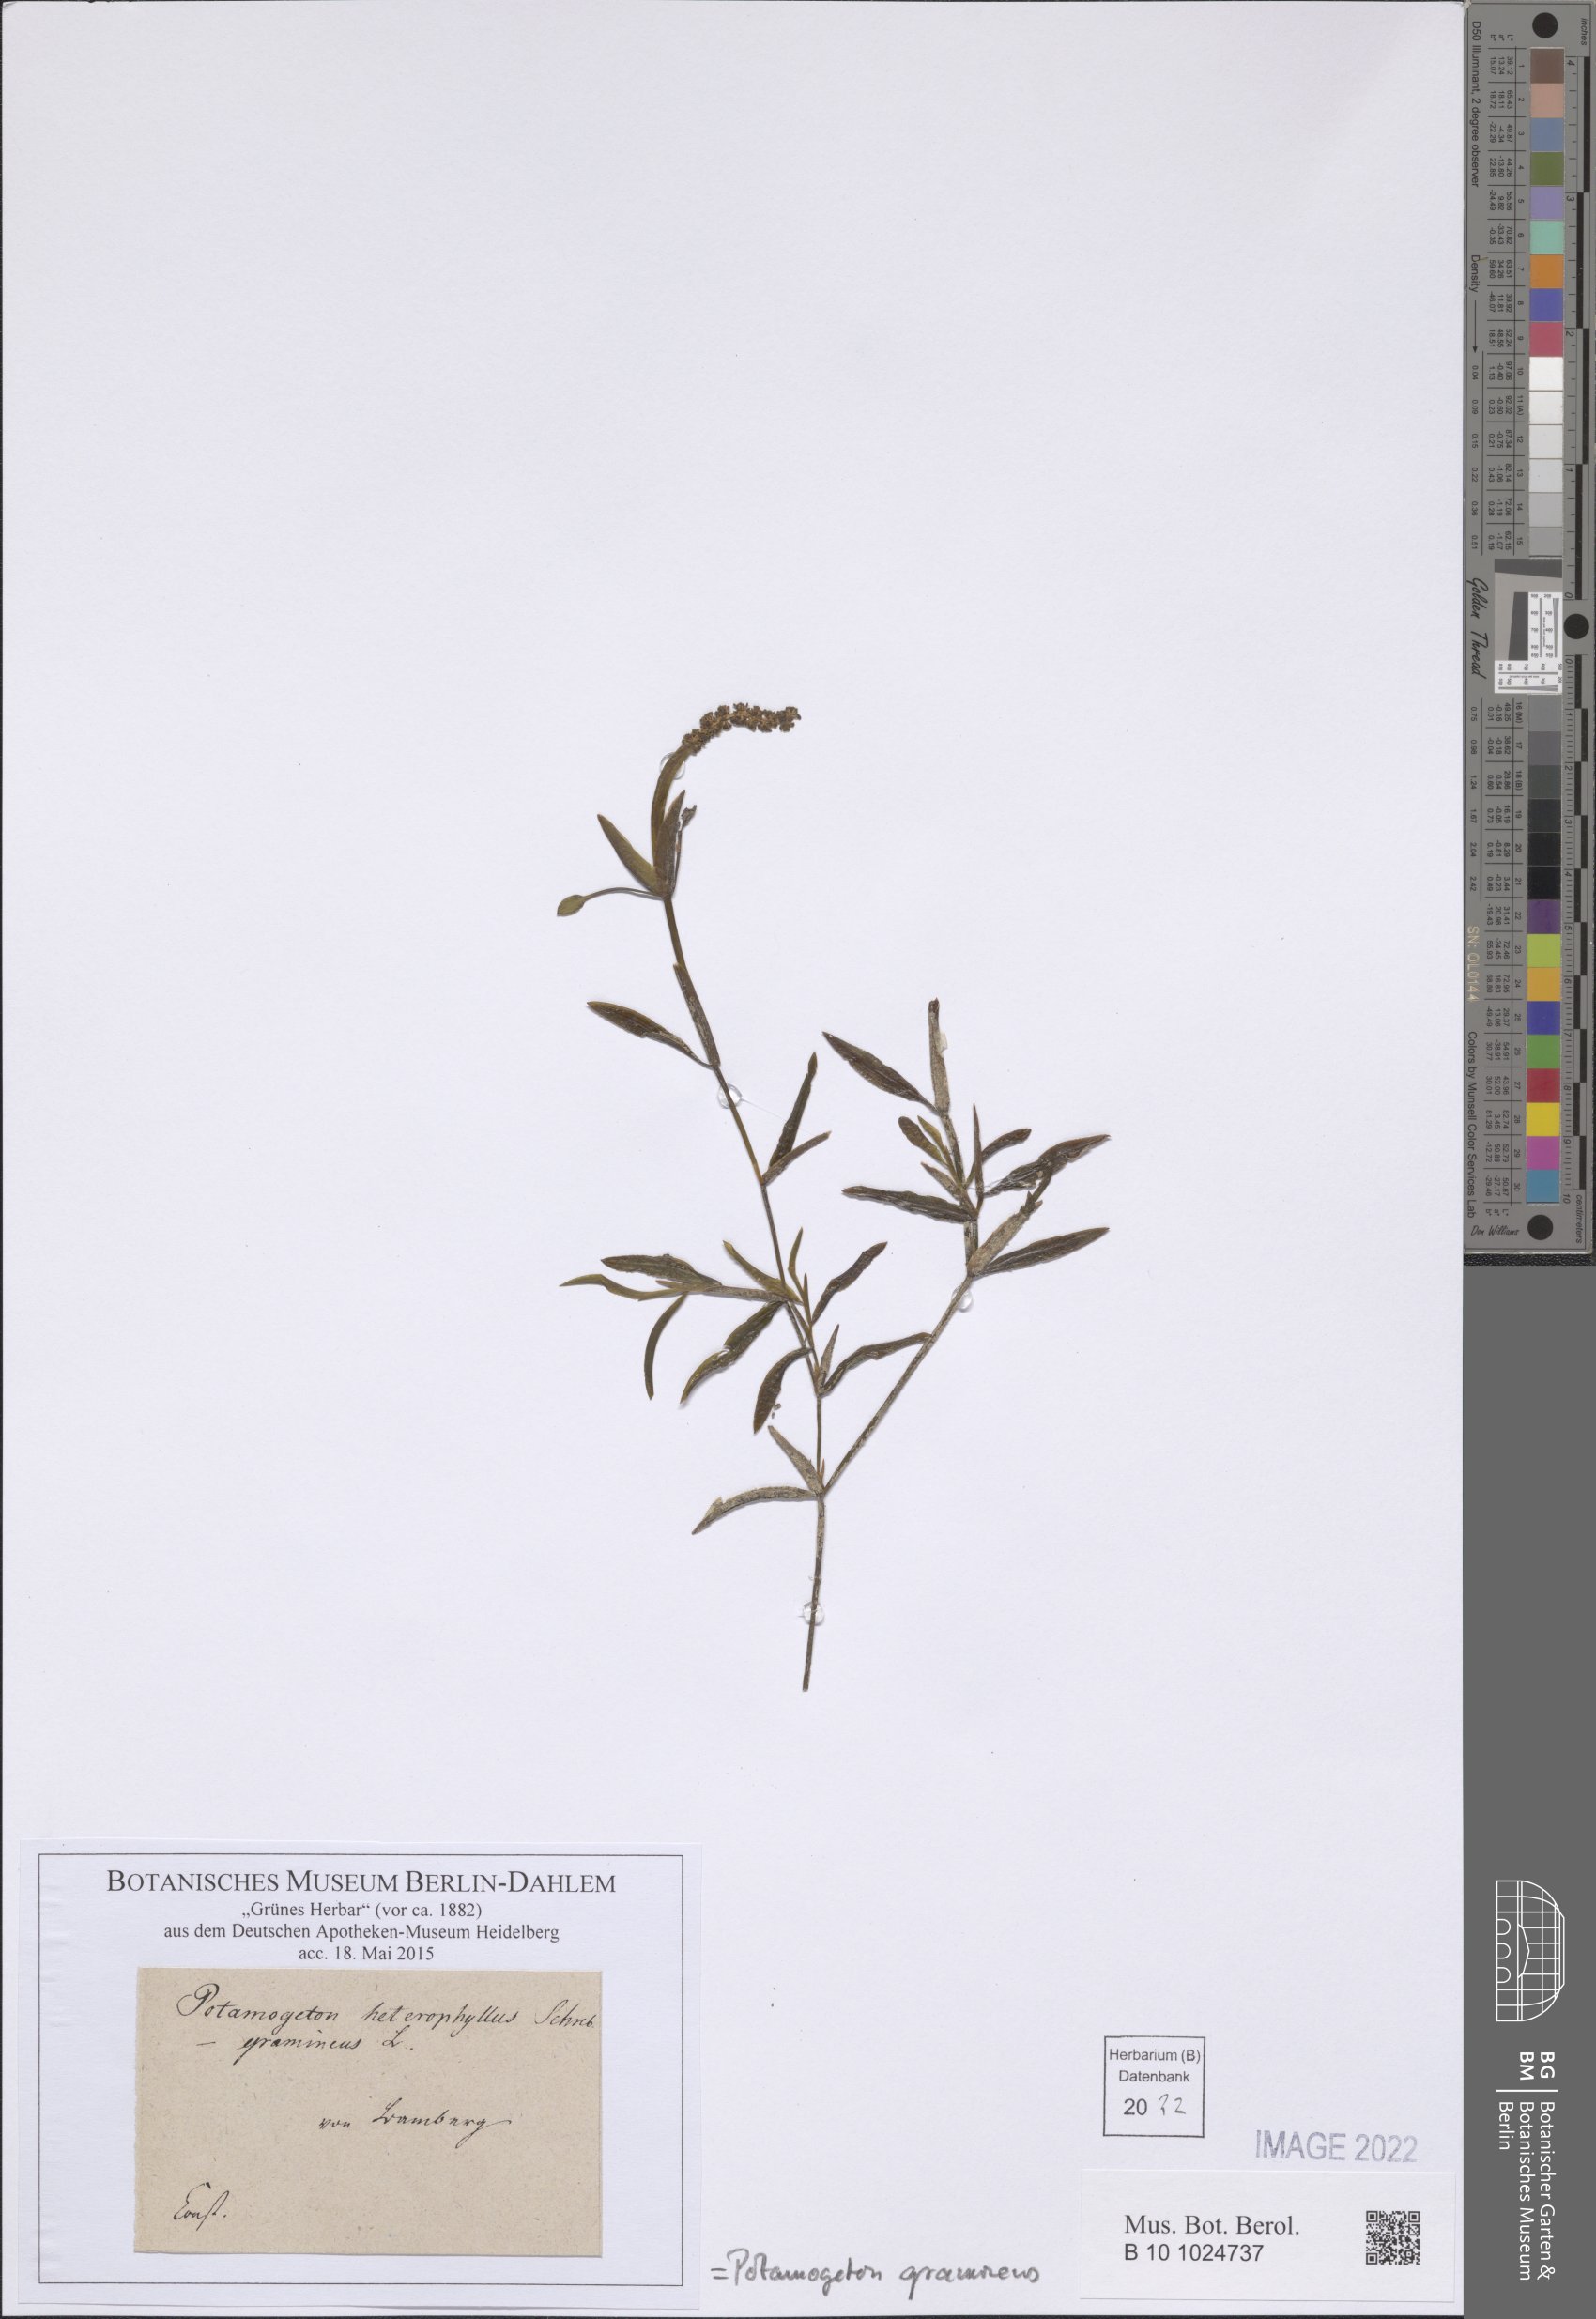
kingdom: Plantae
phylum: Tracheophyta
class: Liliopsida
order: Alismatales
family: Potamogetonaceae
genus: Potamogeton
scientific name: Potamogeton gramineus
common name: Various-leaved pondweed
